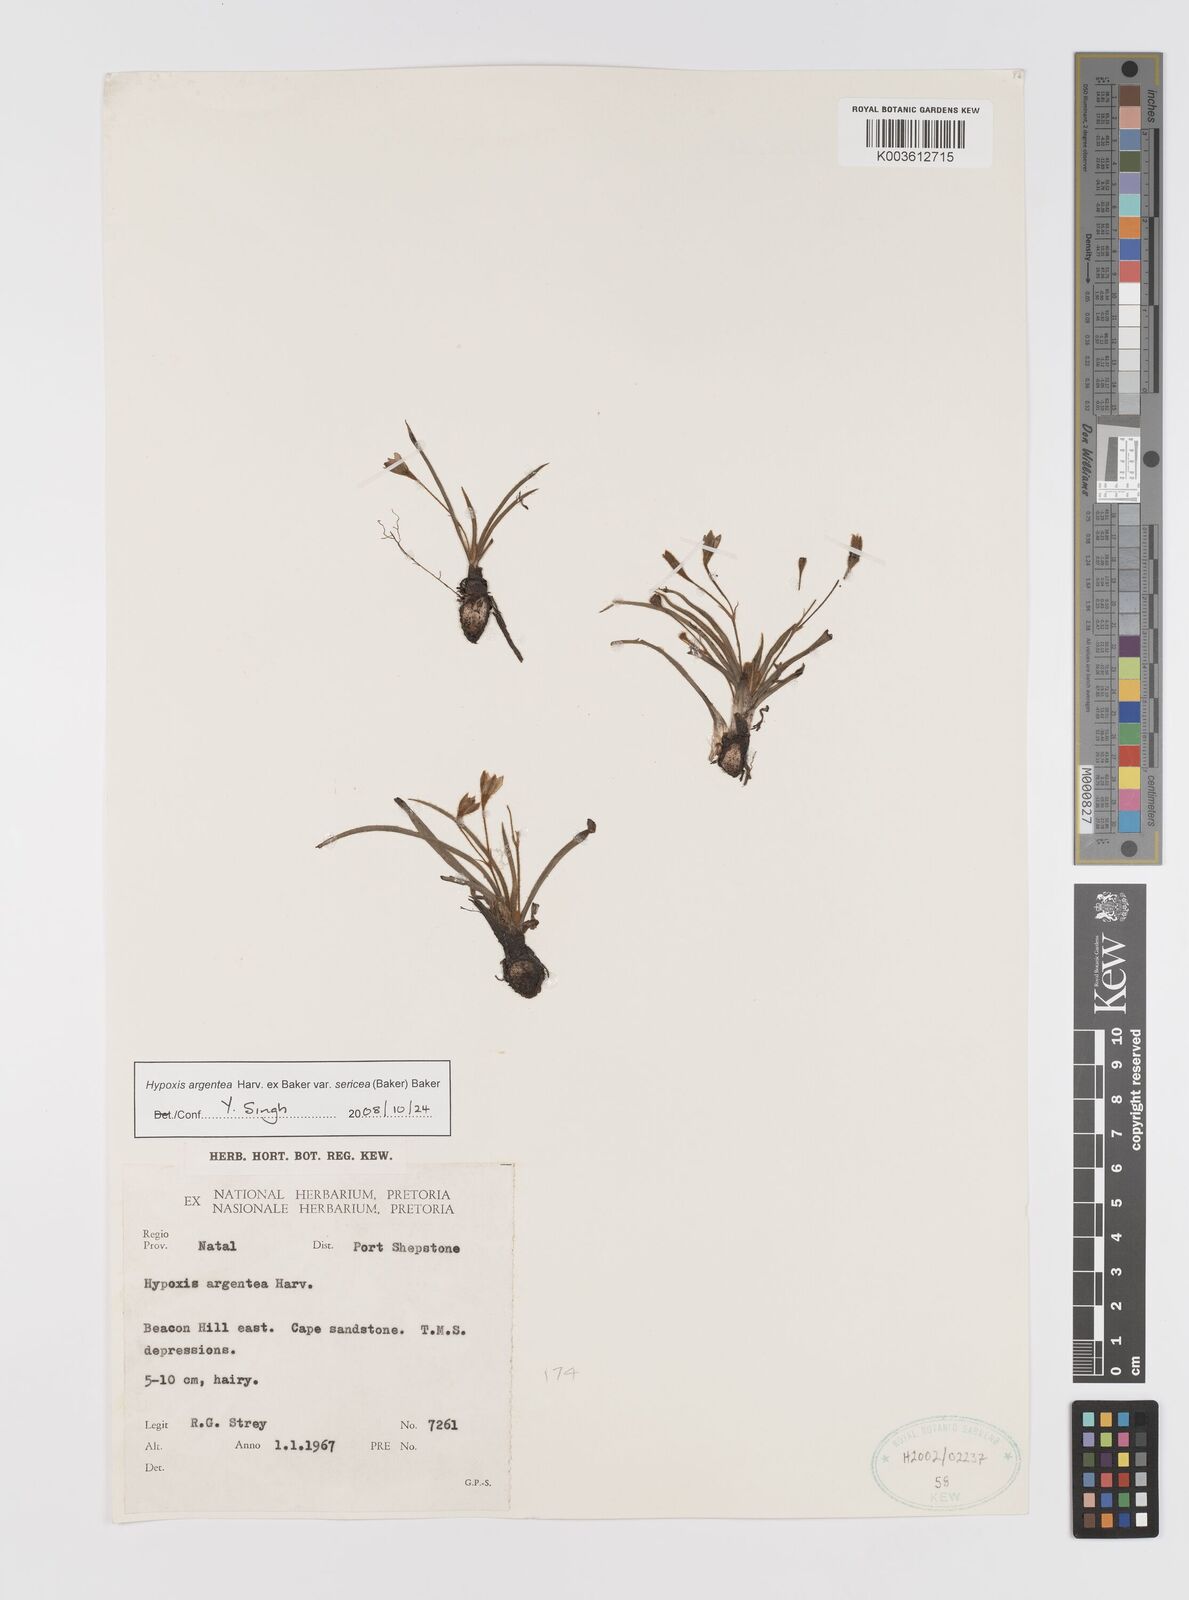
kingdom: Plantae
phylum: Tracheophyta
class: Liliopsida
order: Asparagales
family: Hypoxidaceae
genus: Hypoxis
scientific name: Hypoxis argentea
